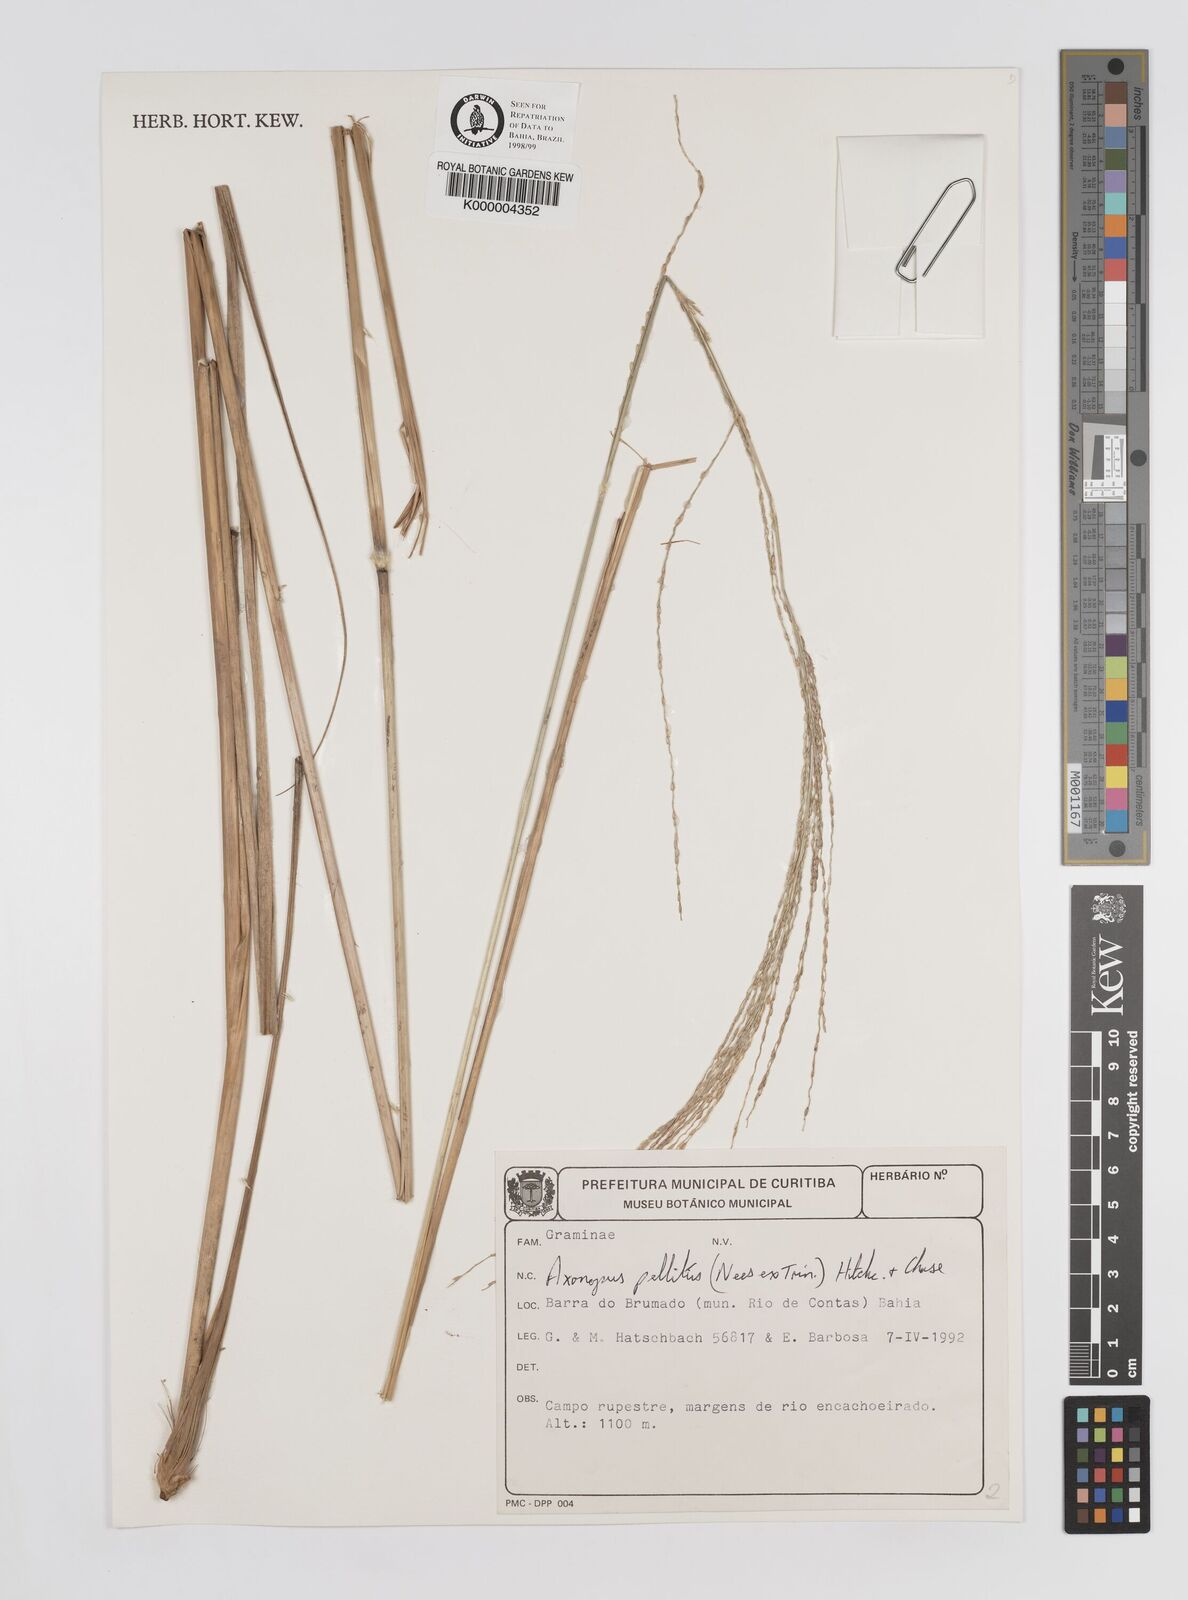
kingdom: Plantae
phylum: Tracheophyta
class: Liliopsida
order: Poales
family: Poaceae
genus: Axonopus
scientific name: Axonopus siccus
